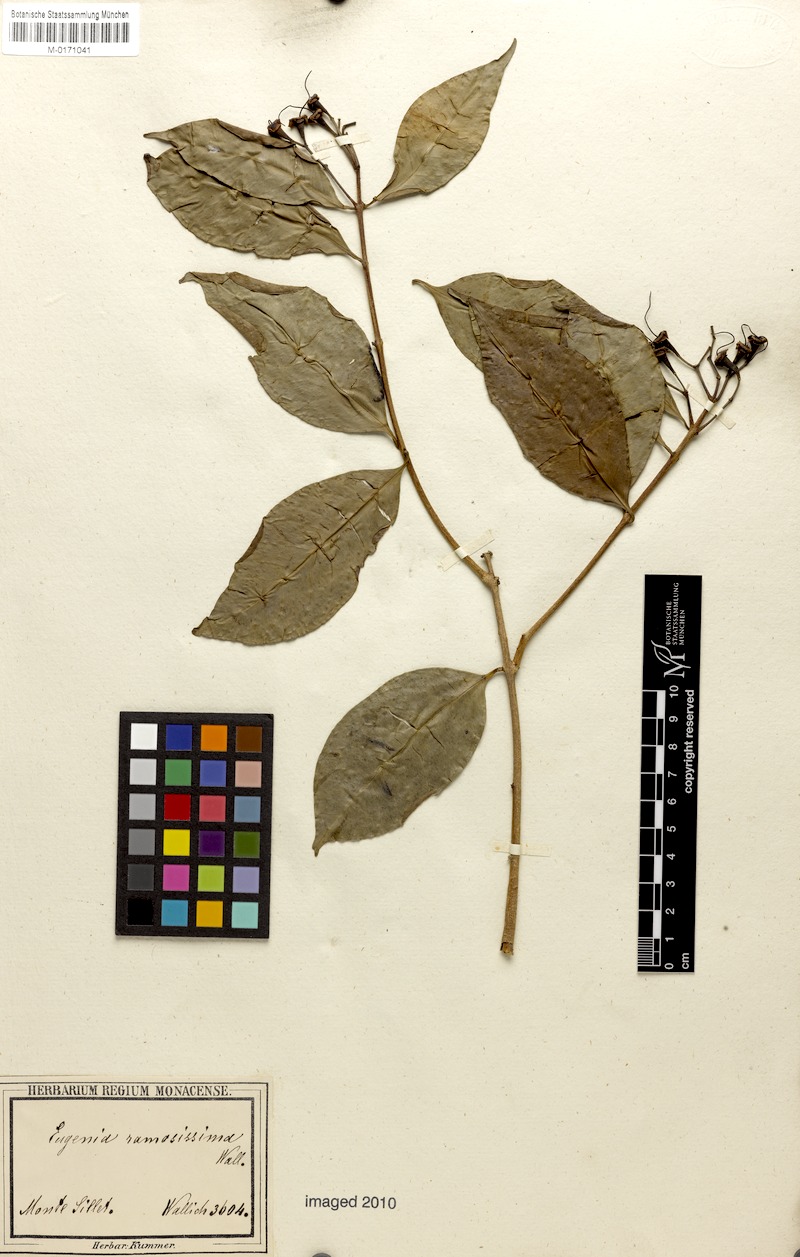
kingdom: Plantae
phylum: Tracheophyta
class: Magnoliopsida
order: Myrtales
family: Myrtaceae
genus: Syzygium
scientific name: Syzygium ramosissimum
